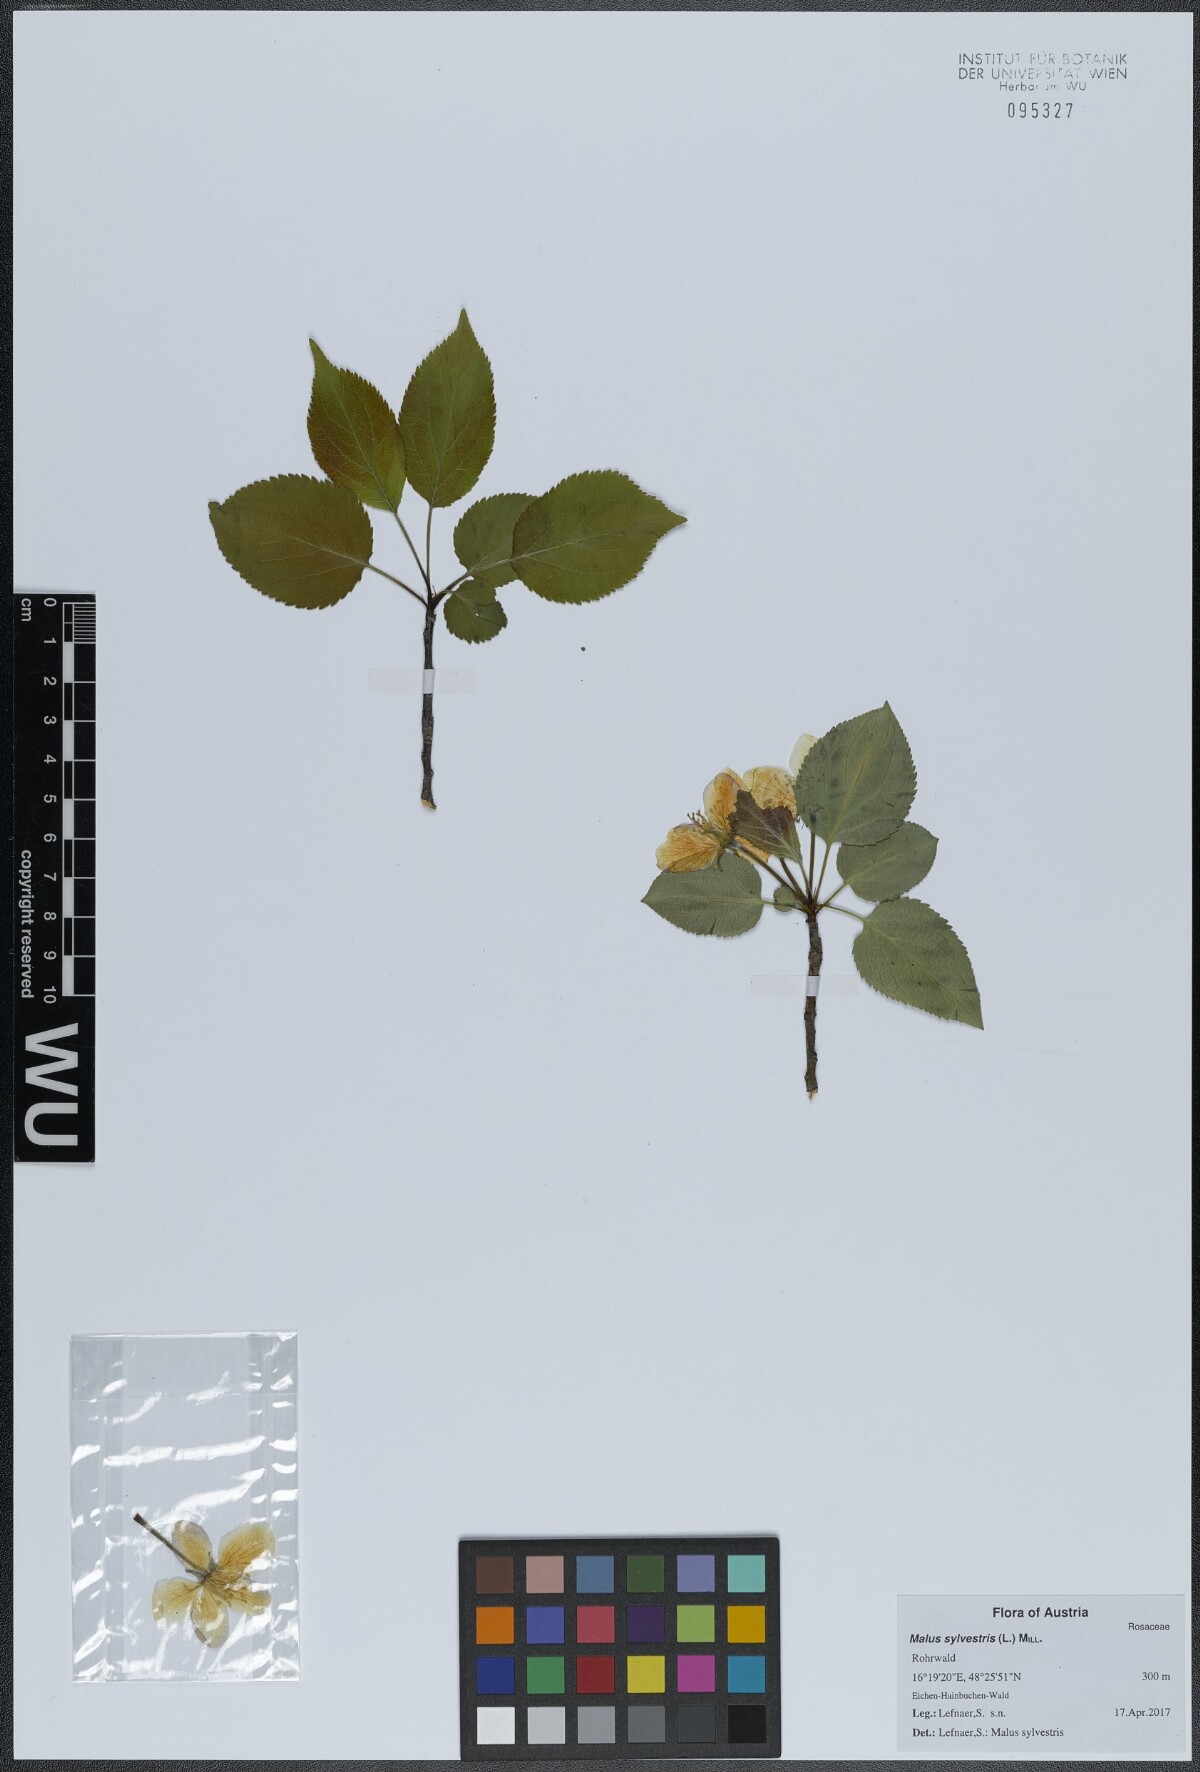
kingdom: Plantae
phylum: Tracheophyta
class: Magnoliopsida
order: Rosales
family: Rosaceae
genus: Malus
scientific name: Malus sylvestris
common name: Crab apple
